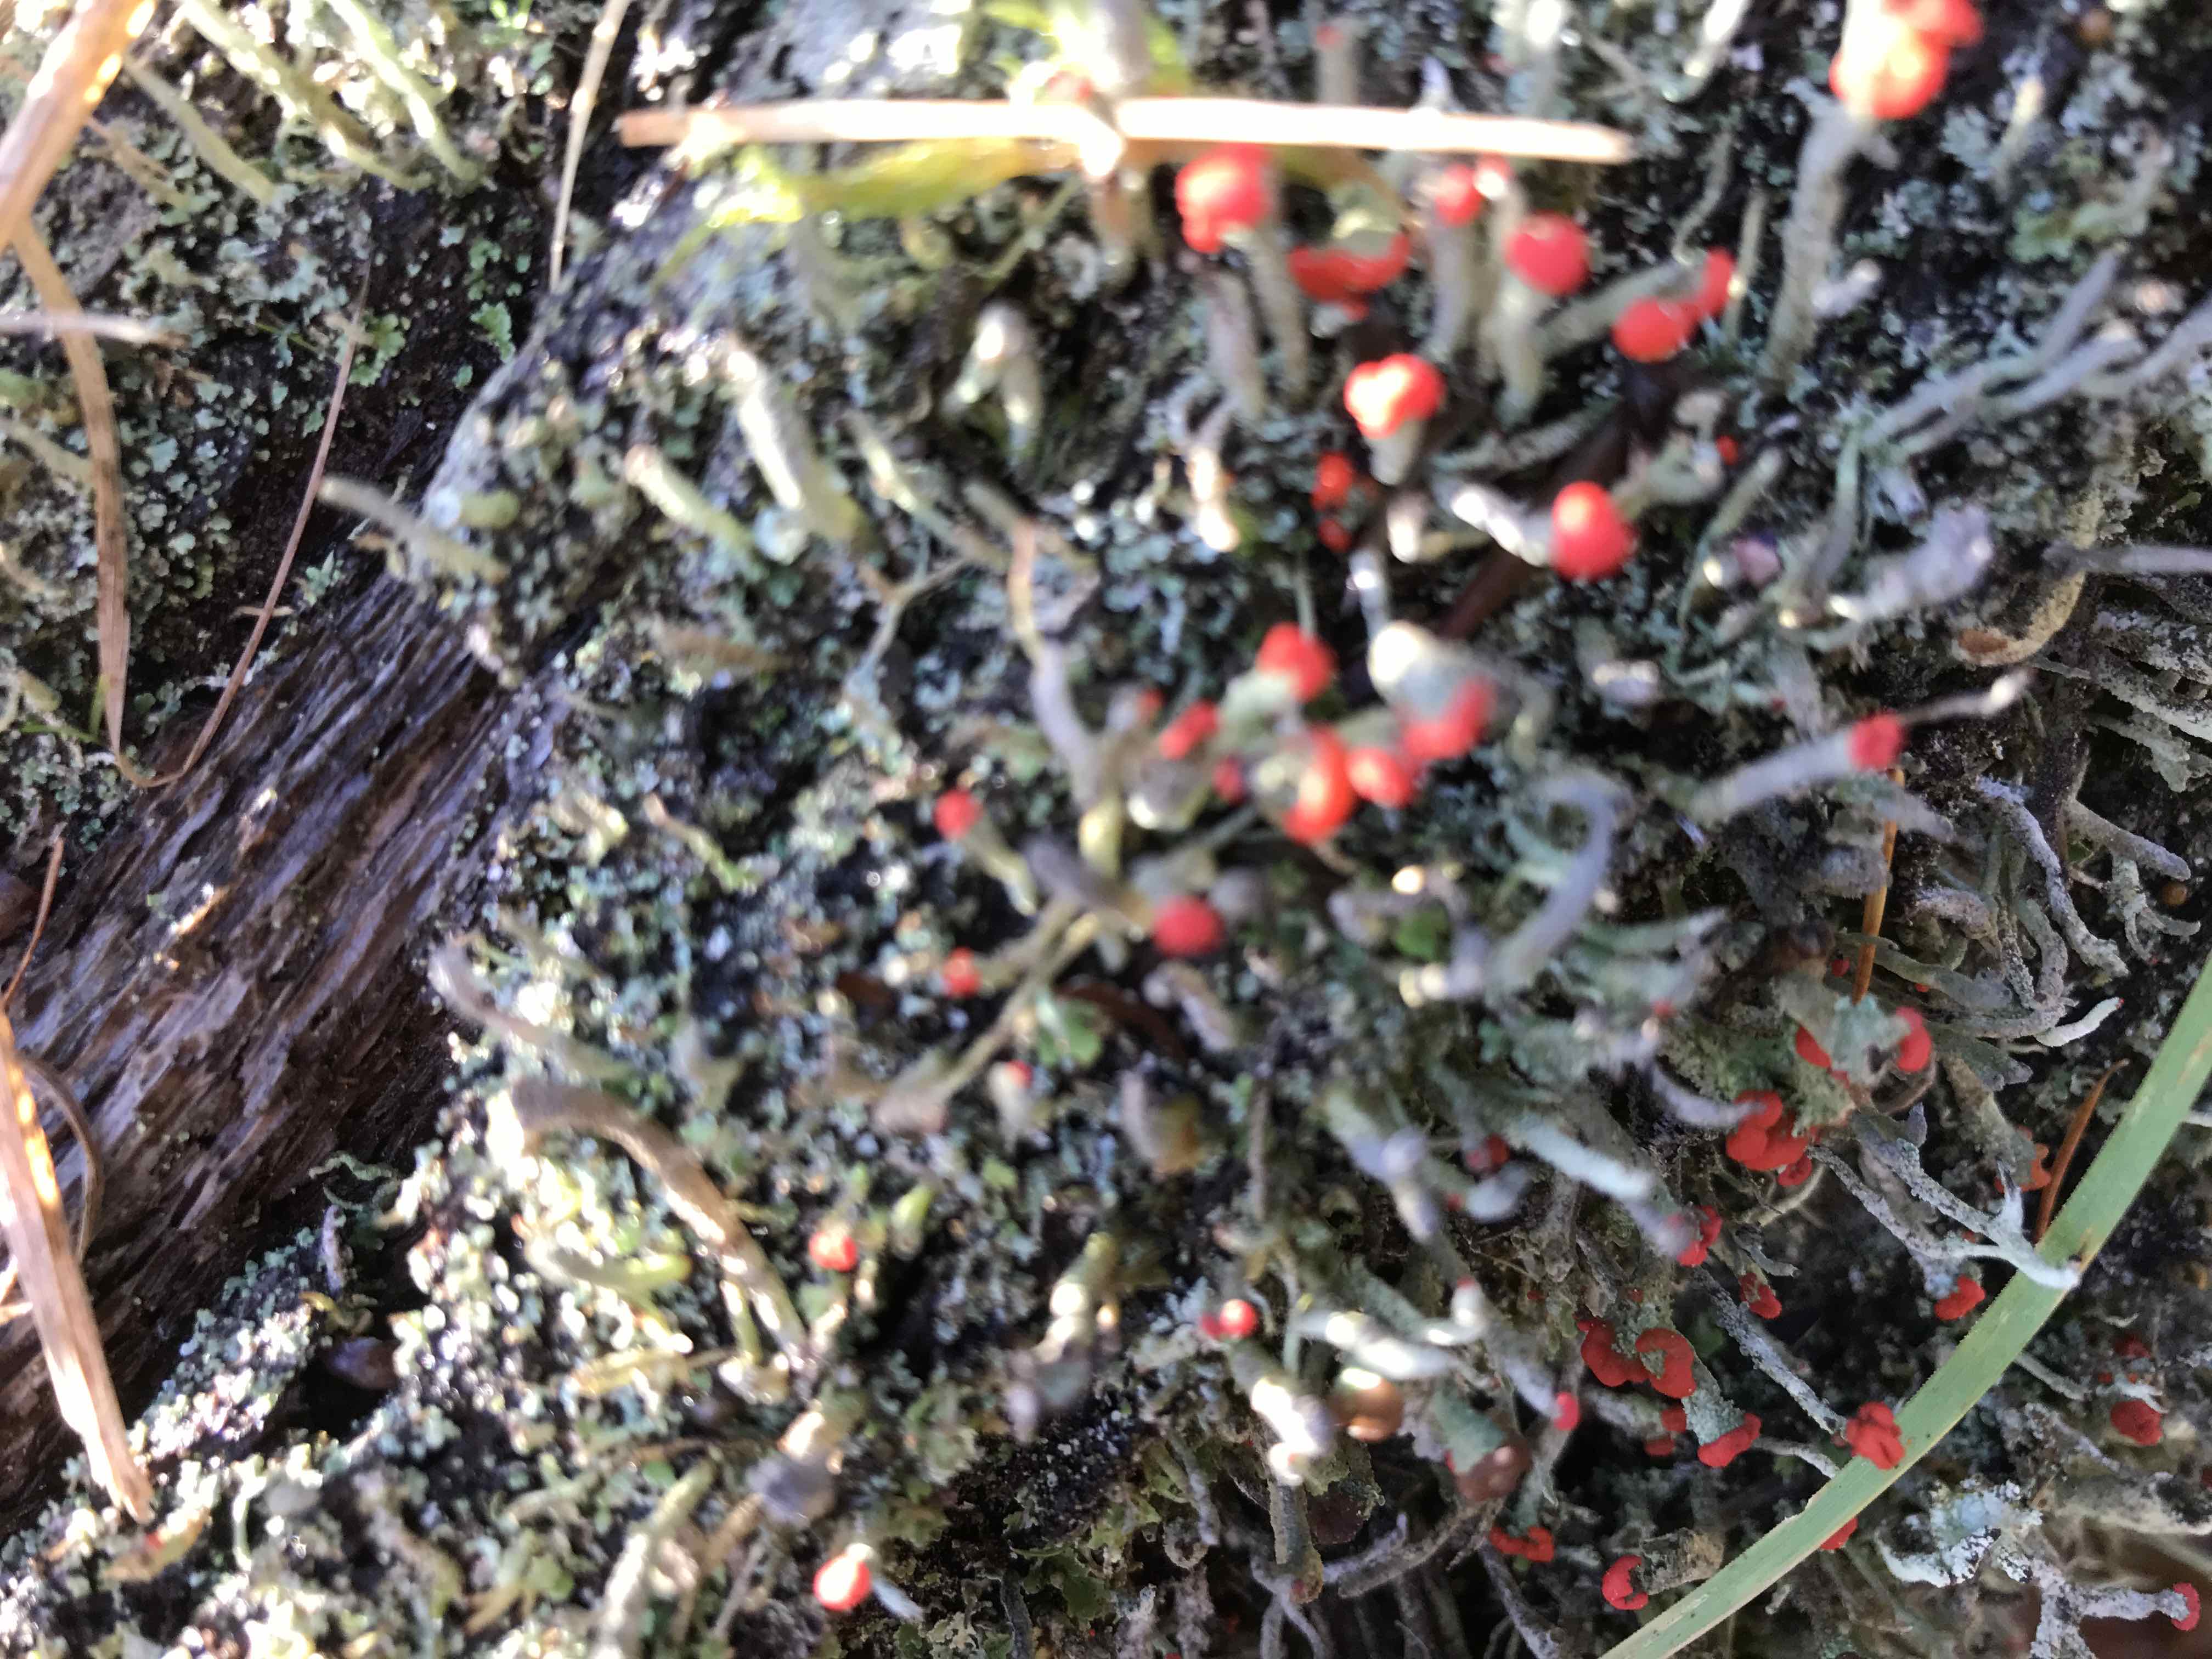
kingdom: Fungi
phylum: Ascomycota
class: Lecanoromycetes
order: Lecanorales
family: Cladoniaceae
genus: Cladonia
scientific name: Cladonia floerkeana
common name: lakrød bægerlav
